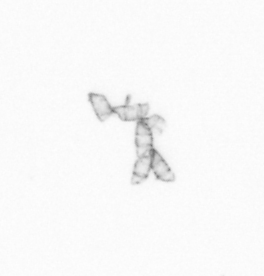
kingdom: Chromista
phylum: Ochrophyta
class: Bacillariophyceae
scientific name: Bacillariophyceae
